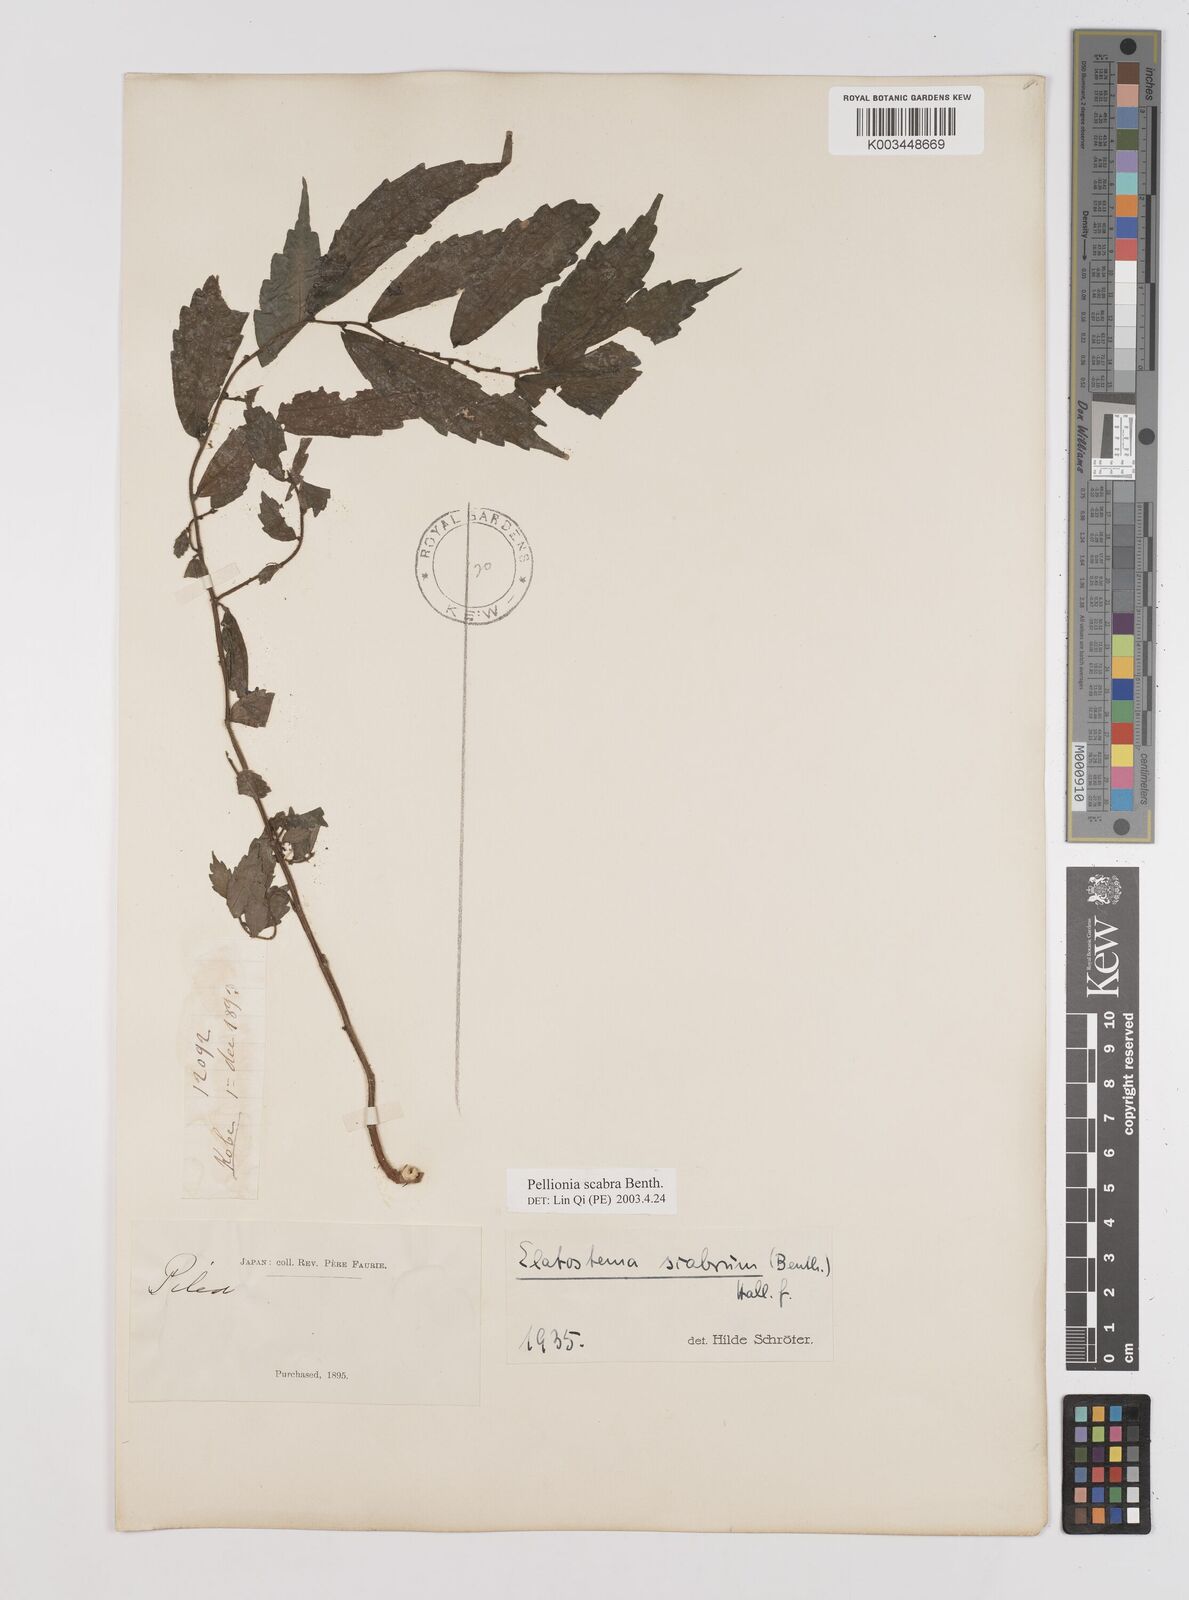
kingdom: Plantae
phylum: Tracheophyta
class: Magnoliopsida
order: Rosales
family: Urticaceae
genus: Elatostema
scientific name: Elatostema
